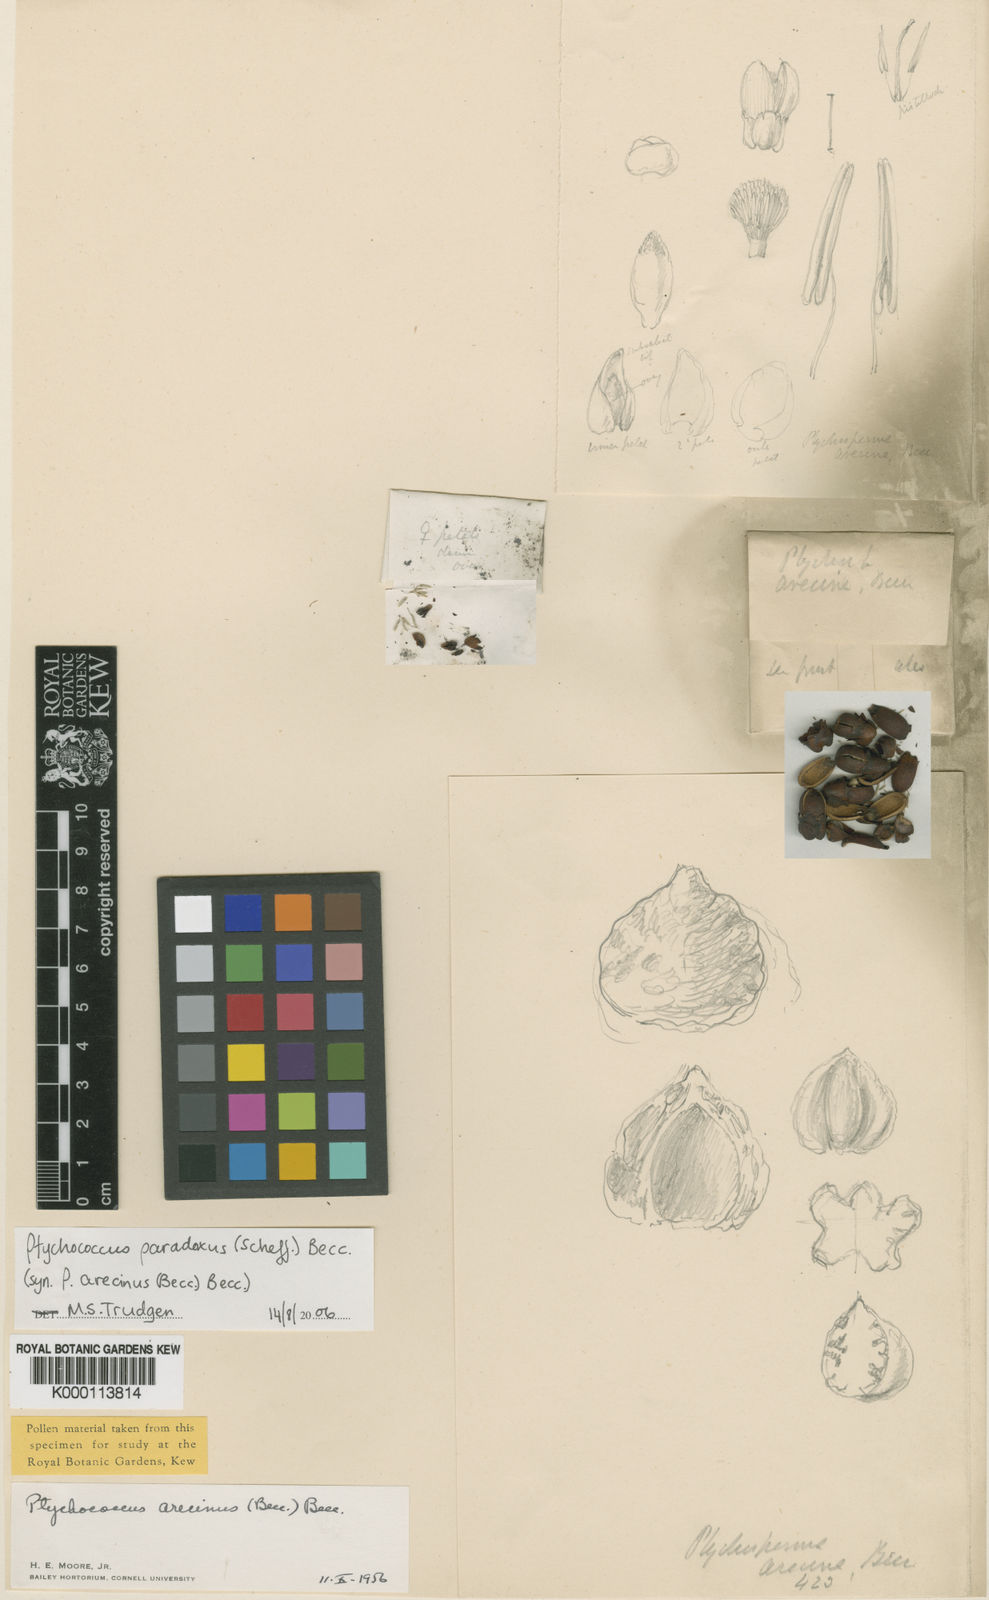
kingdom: Plantae
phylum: Tracheophyta
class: Liliopsida
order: Arecales
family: Arecaceae
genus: Ptychococcus
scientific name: Ptychococcus paradoxus
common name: Wrinkled-fruit palm
